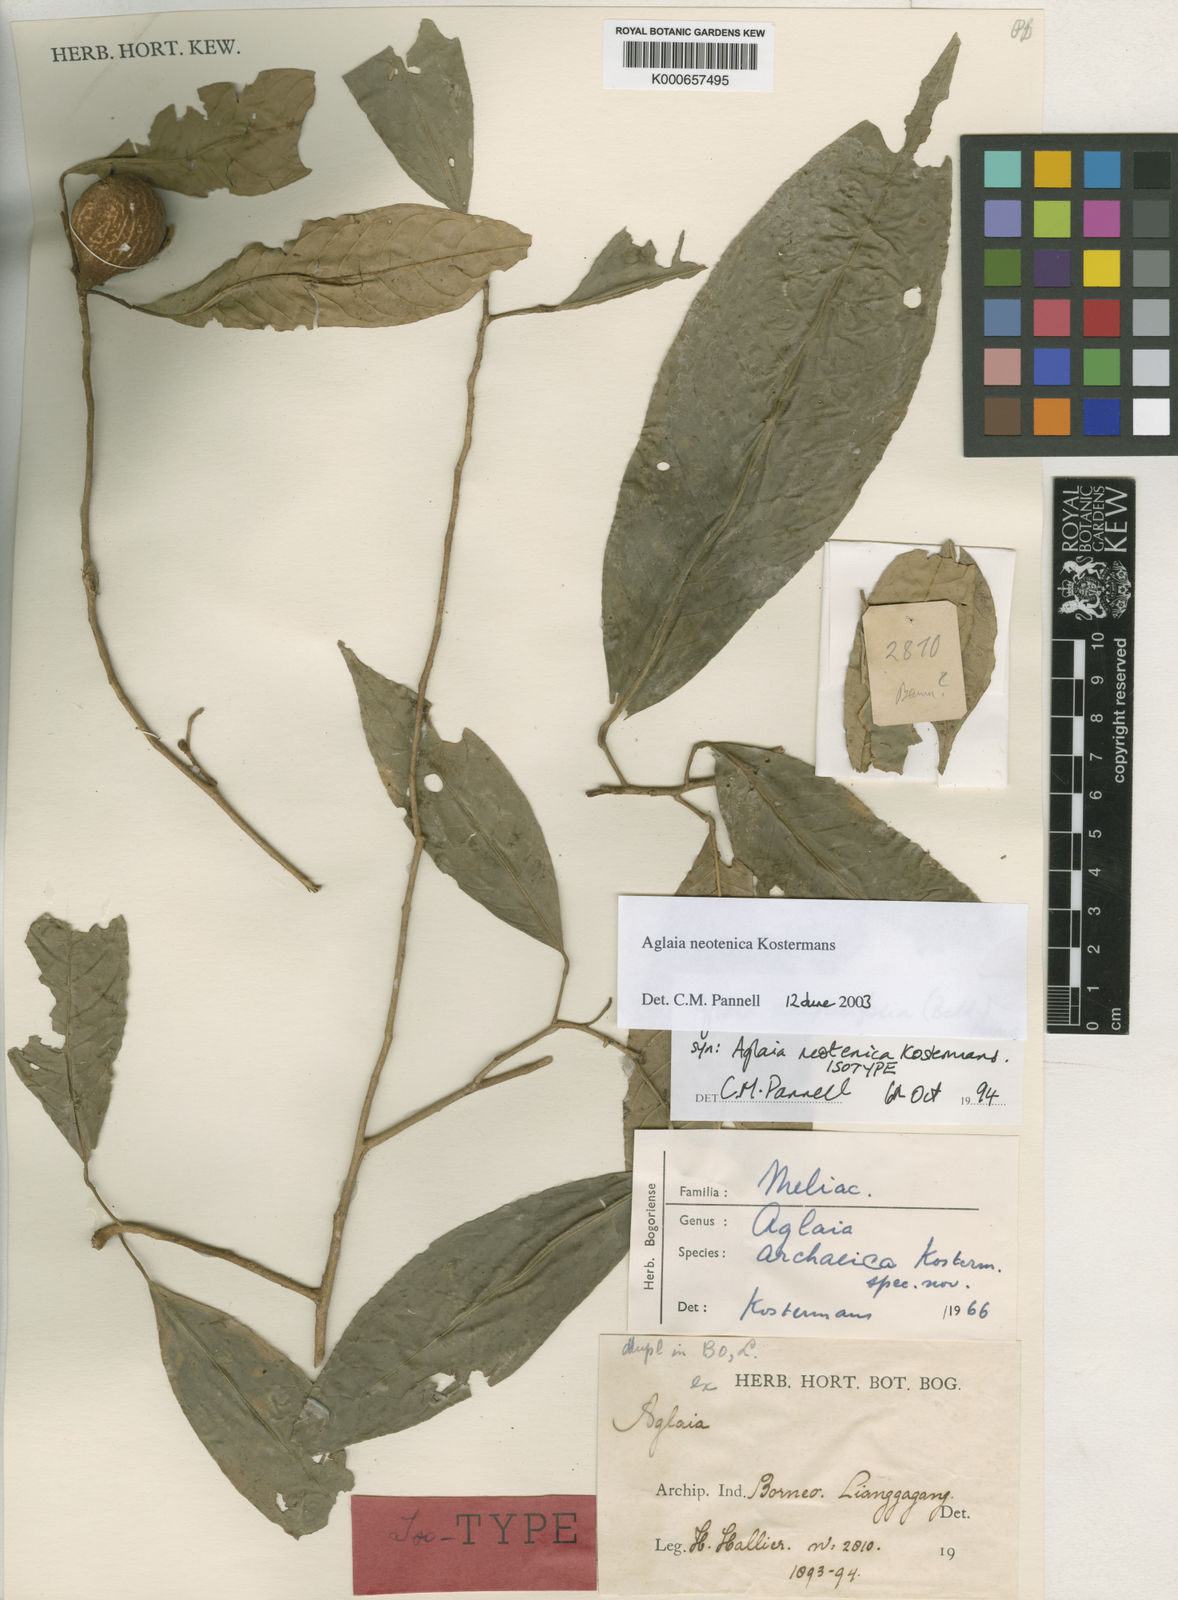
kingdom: Plantae
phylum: Tracheophyta
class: Magnoliopsida
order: Sapindales
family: Meliaceae
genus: Aglaia
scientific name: Aglaia simplicifolia
